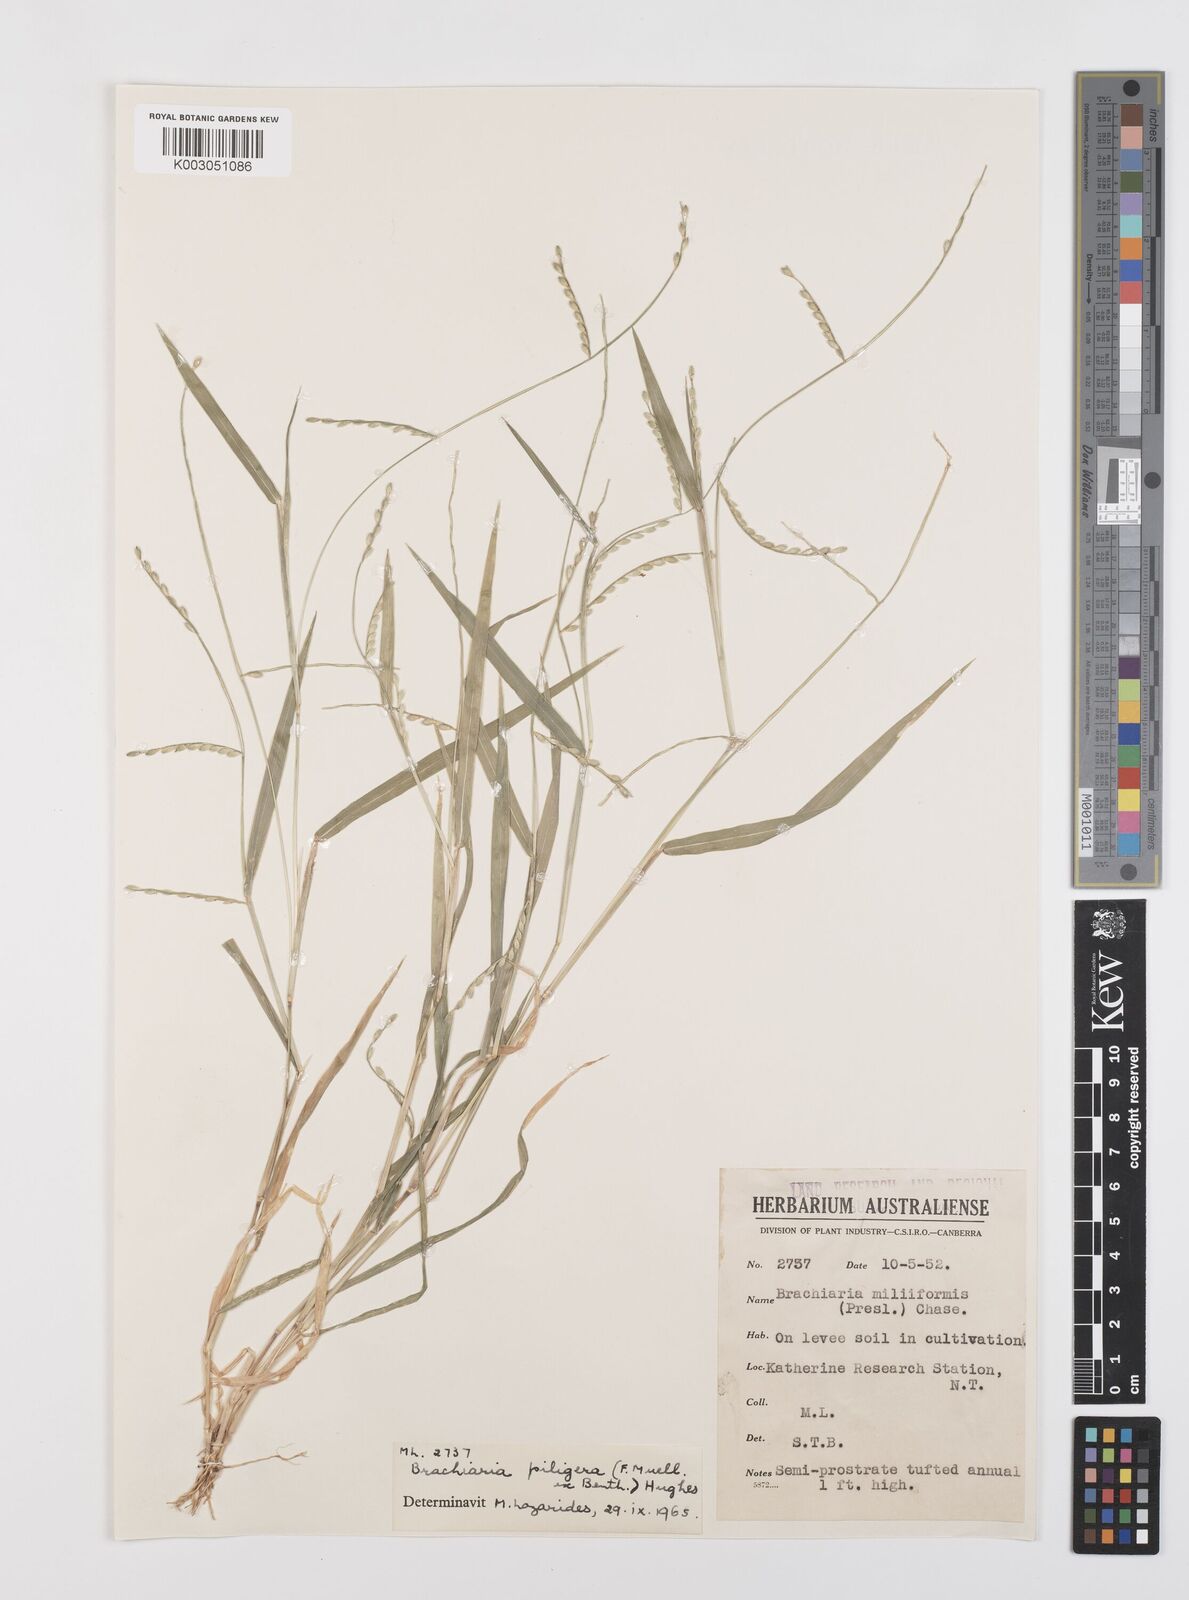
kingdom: Plantae
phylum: Tracheophyta
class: Liliopsida
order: Poales
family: Poaceae
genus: Urochloa
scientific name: Urochloa piligera
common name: Wattle signalgrass
